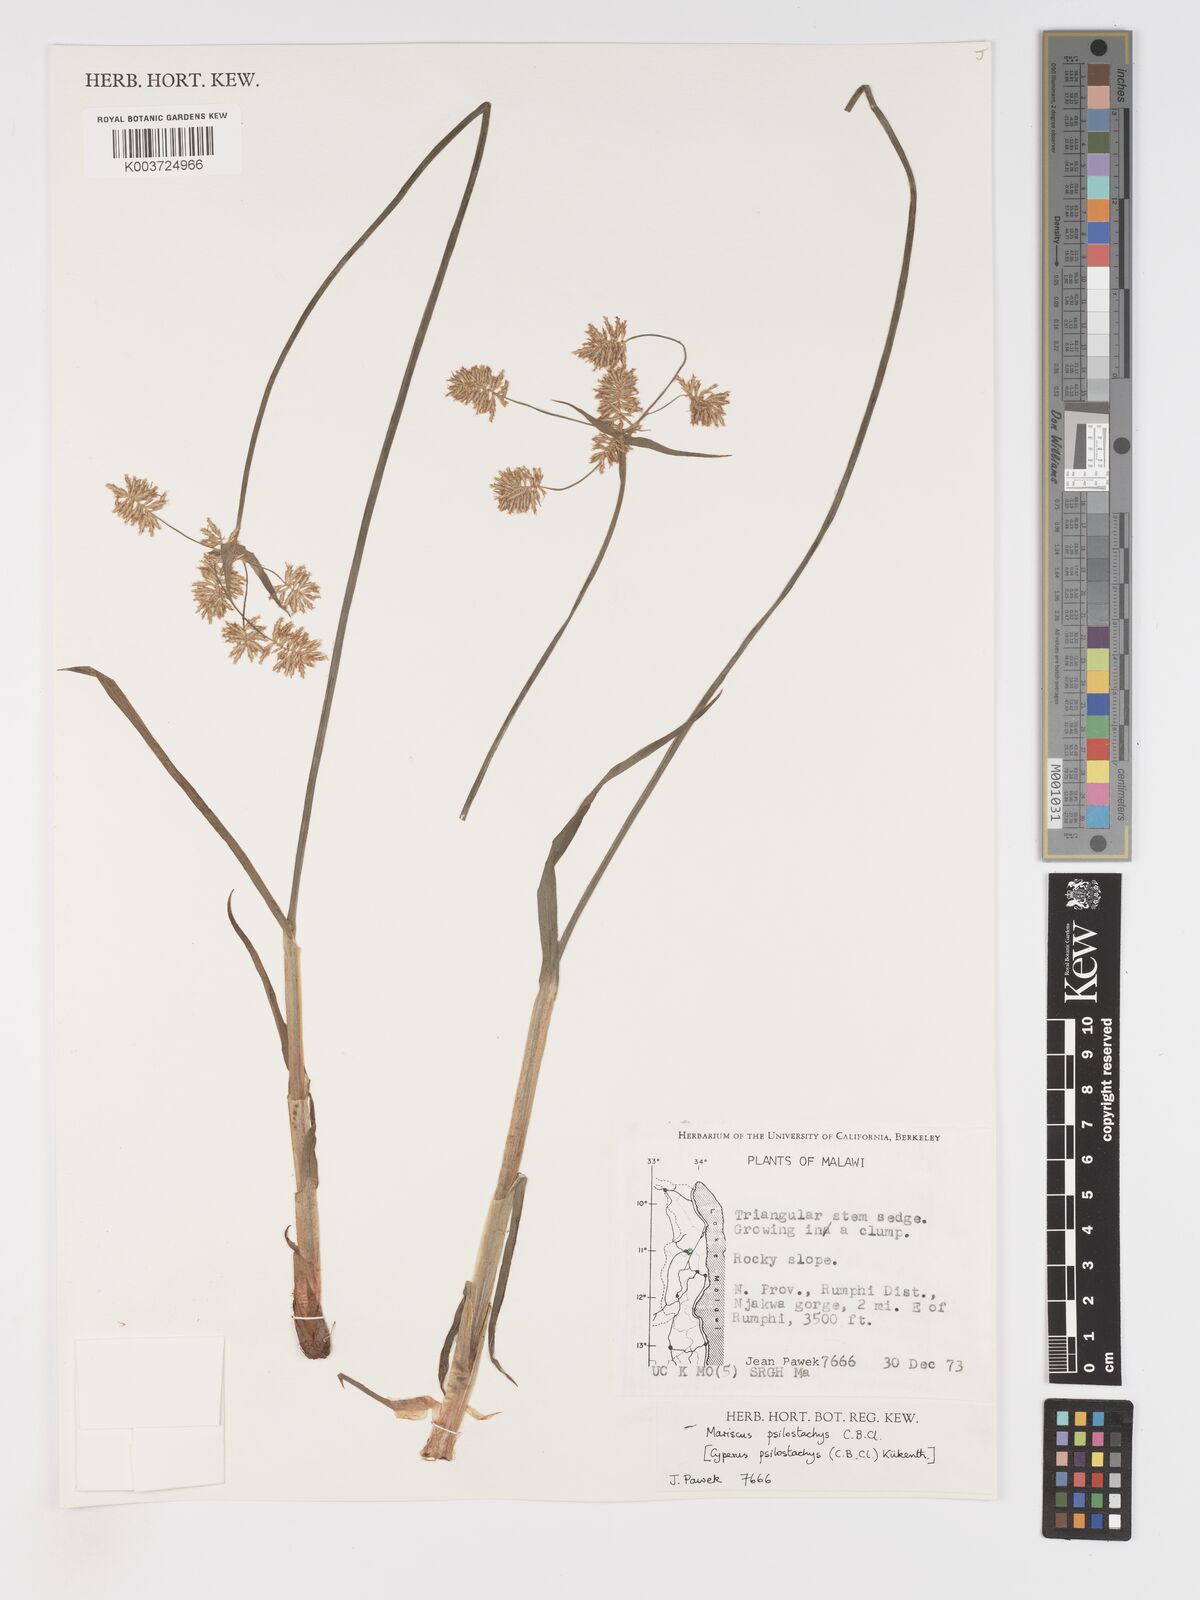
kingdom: Plantae
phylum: Tracheophyta
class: Liliopsida
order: Poales
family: Cyperaceae
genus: Cyperus
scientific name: Cyperus trigonellus
